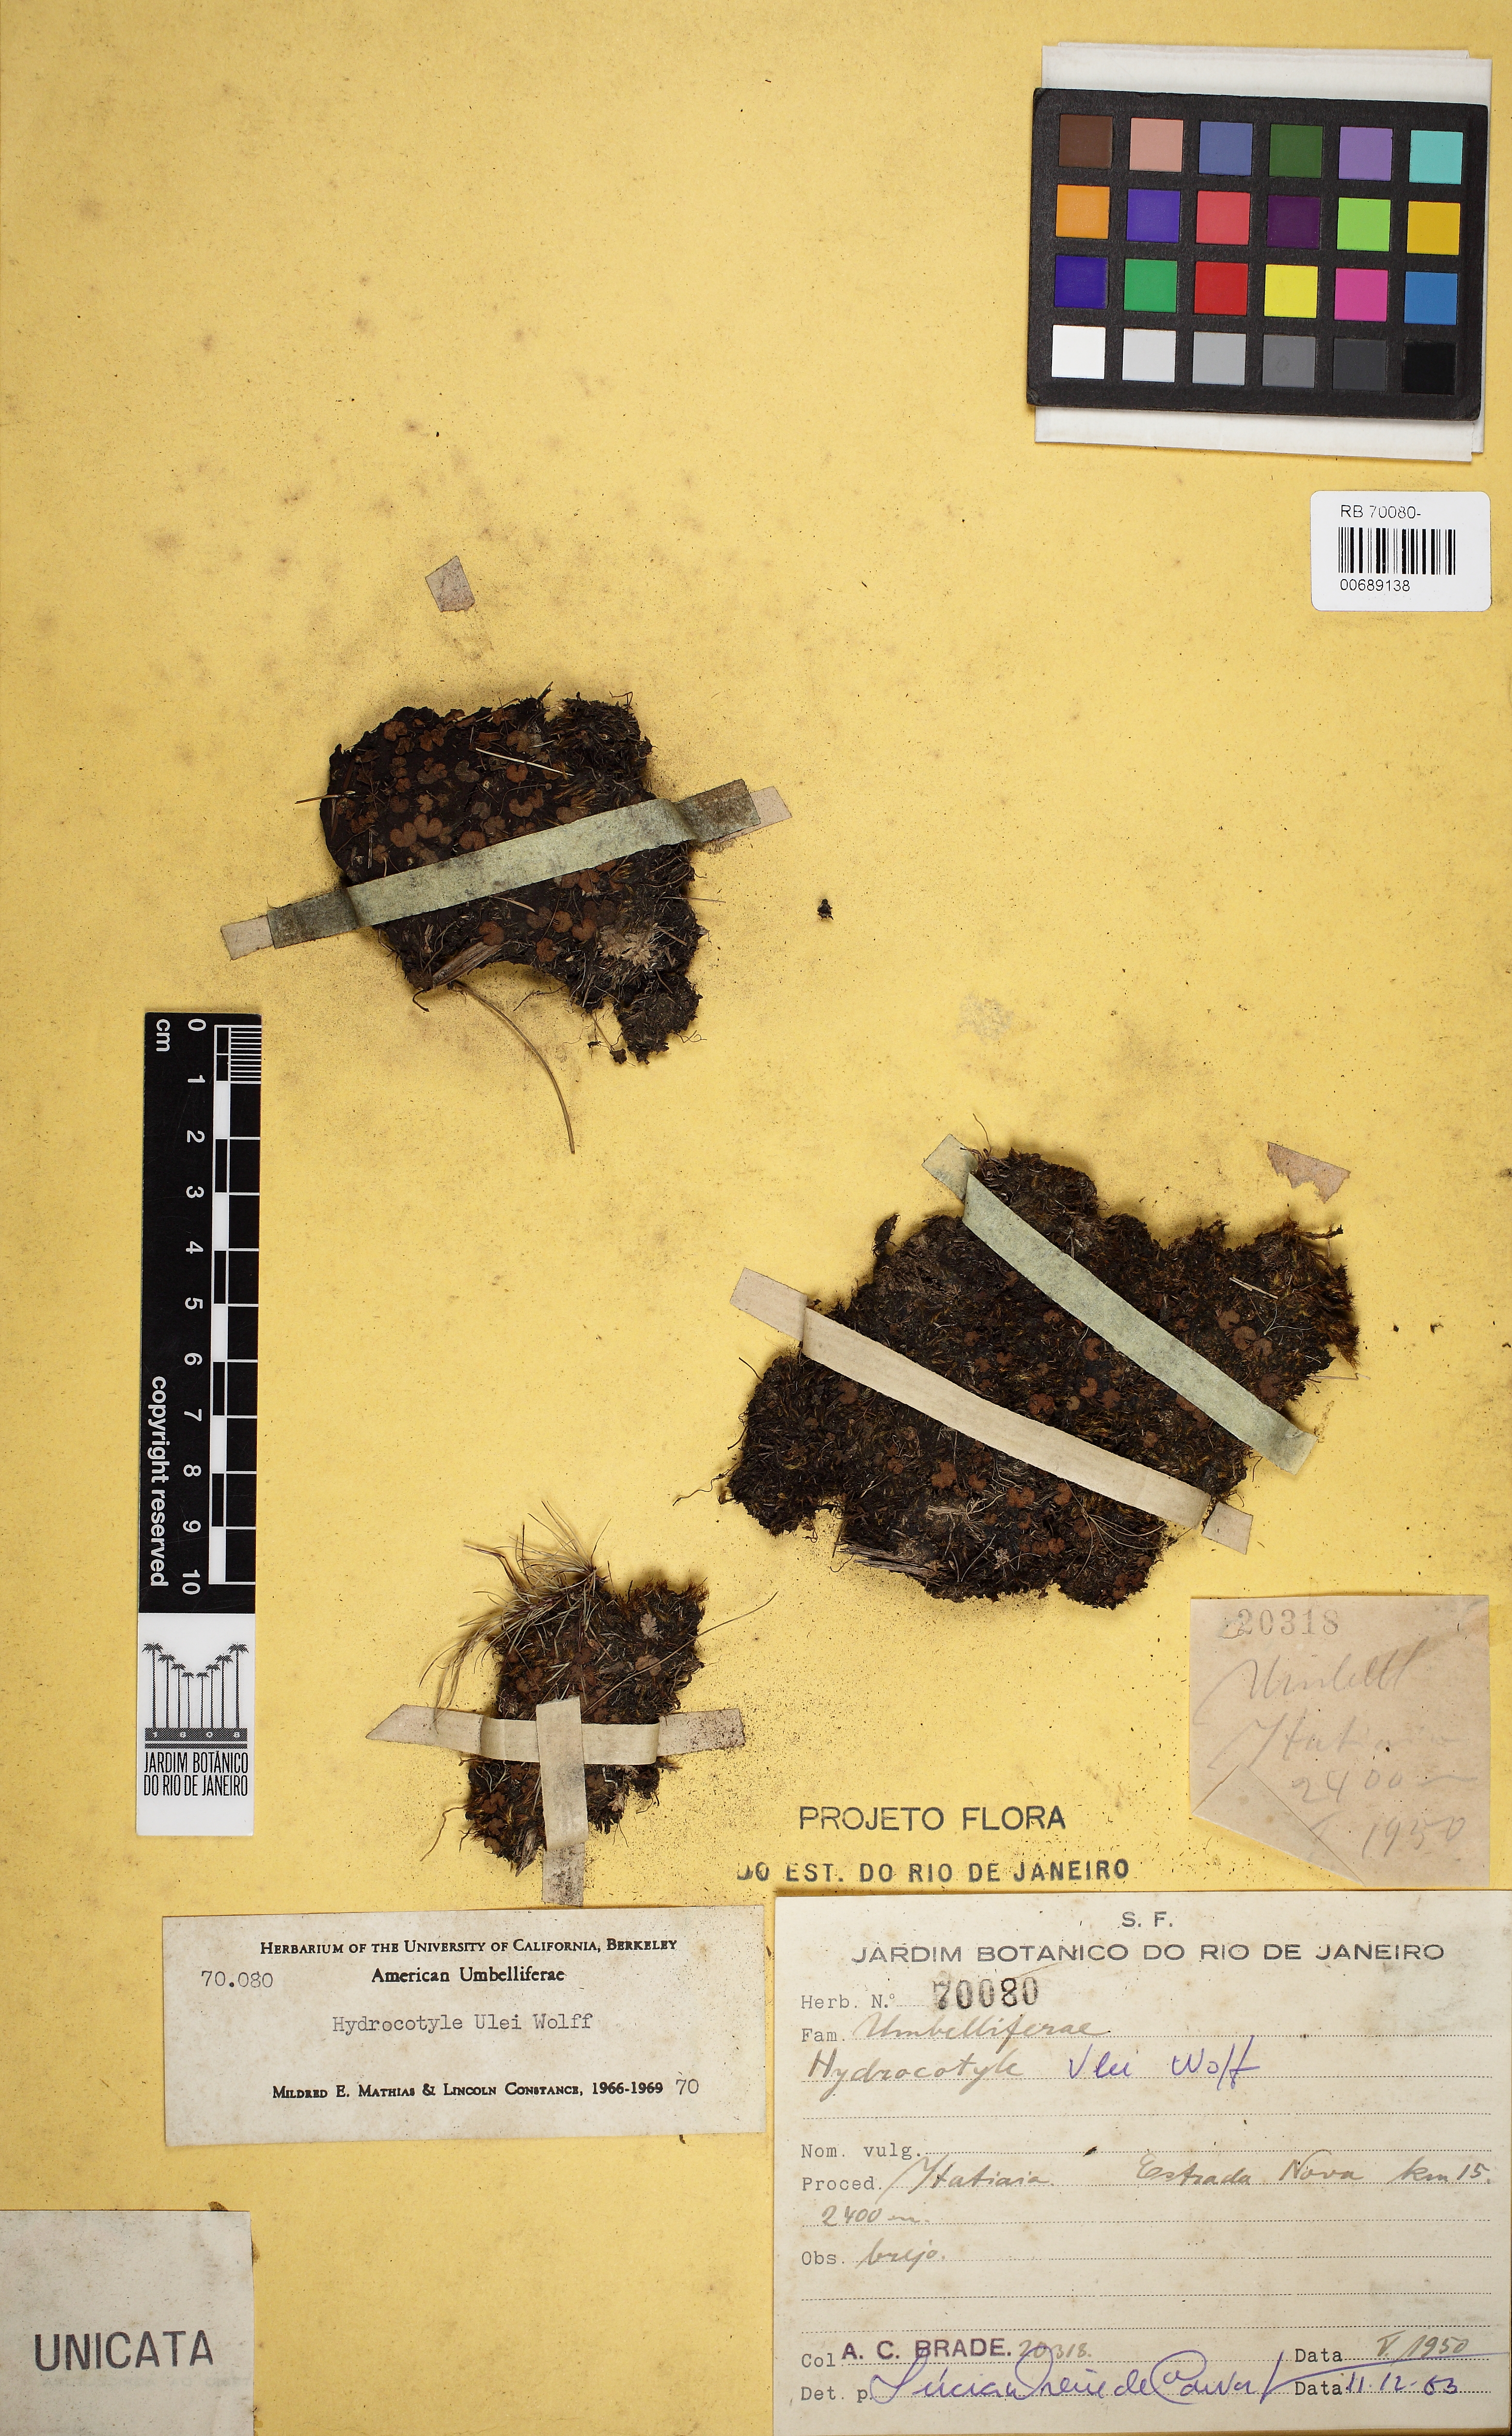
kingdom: Plantae
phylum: Tracheophyta
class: Magnoliopsida
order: Apiales
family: Araliaceae
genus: Hydrocotyle
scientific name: Hydrocotyle ulei
